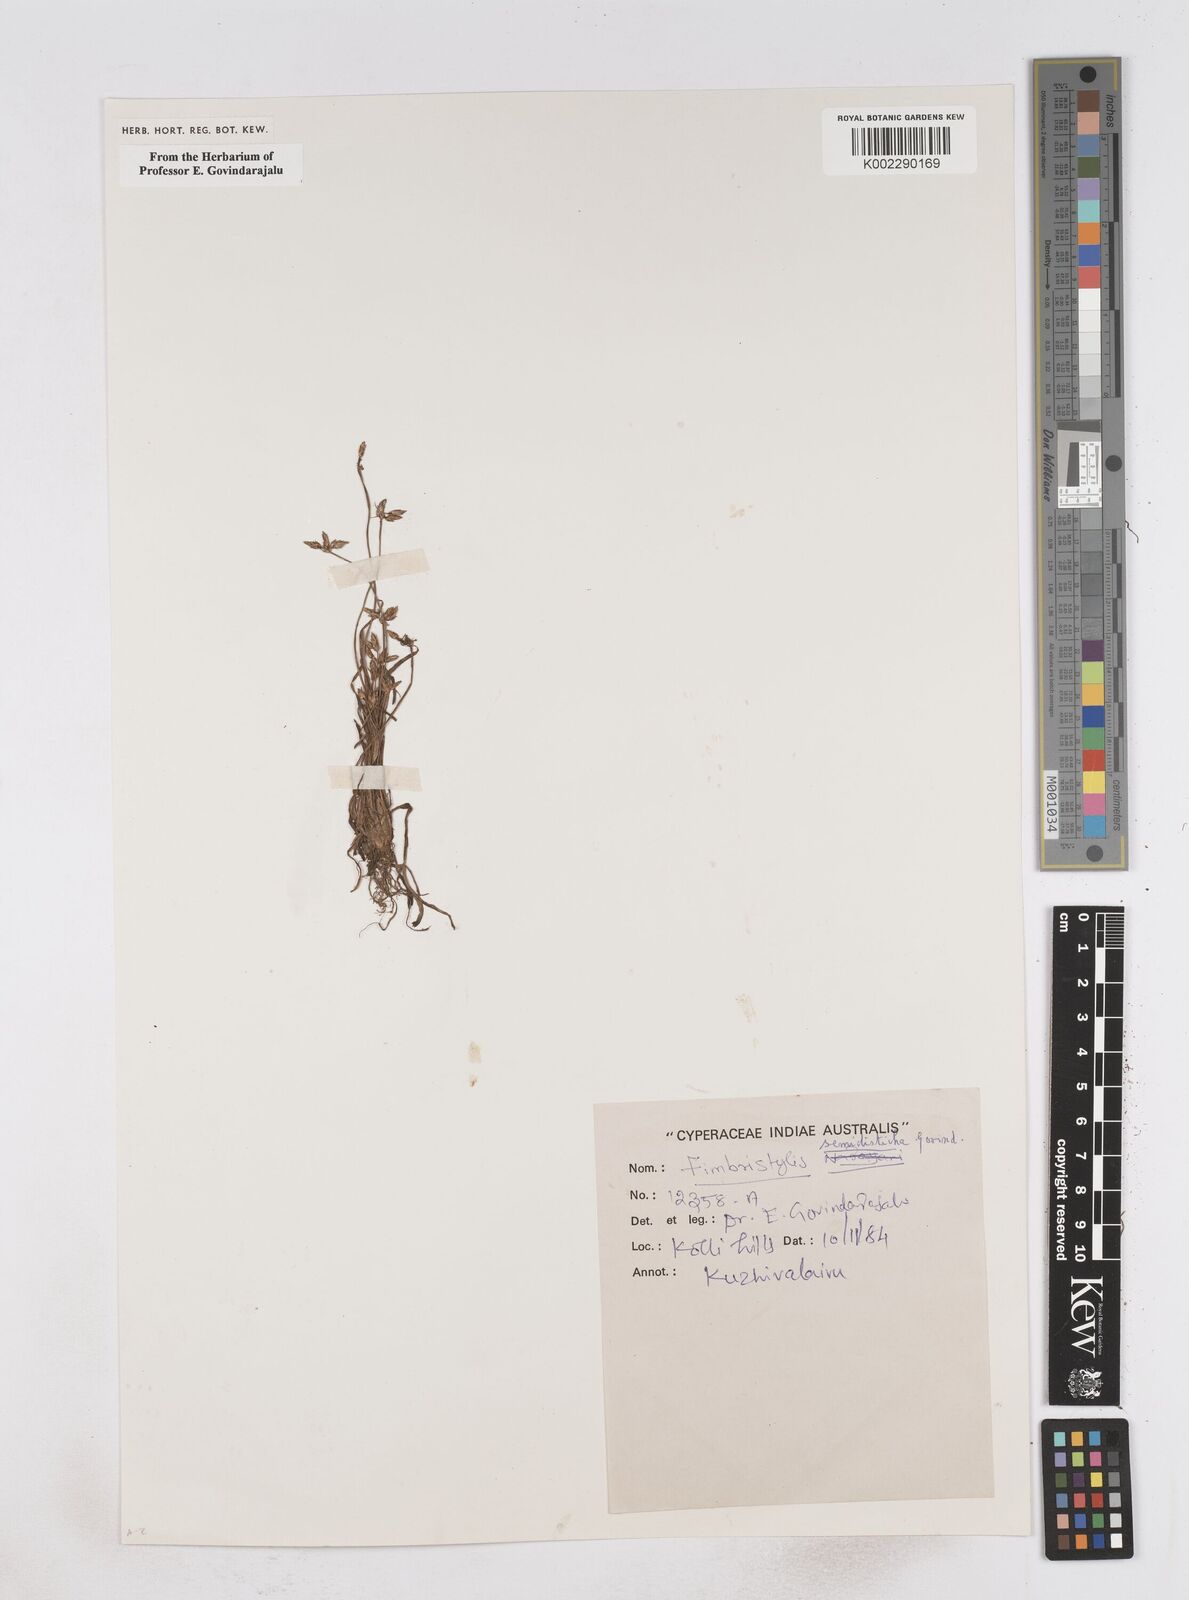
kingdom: Plantae
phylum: Tracheophyta
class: Liliopsida
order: Poales
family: Cyperaceae
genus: Fimbristylis
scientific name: Fimbristylis semidisticha
